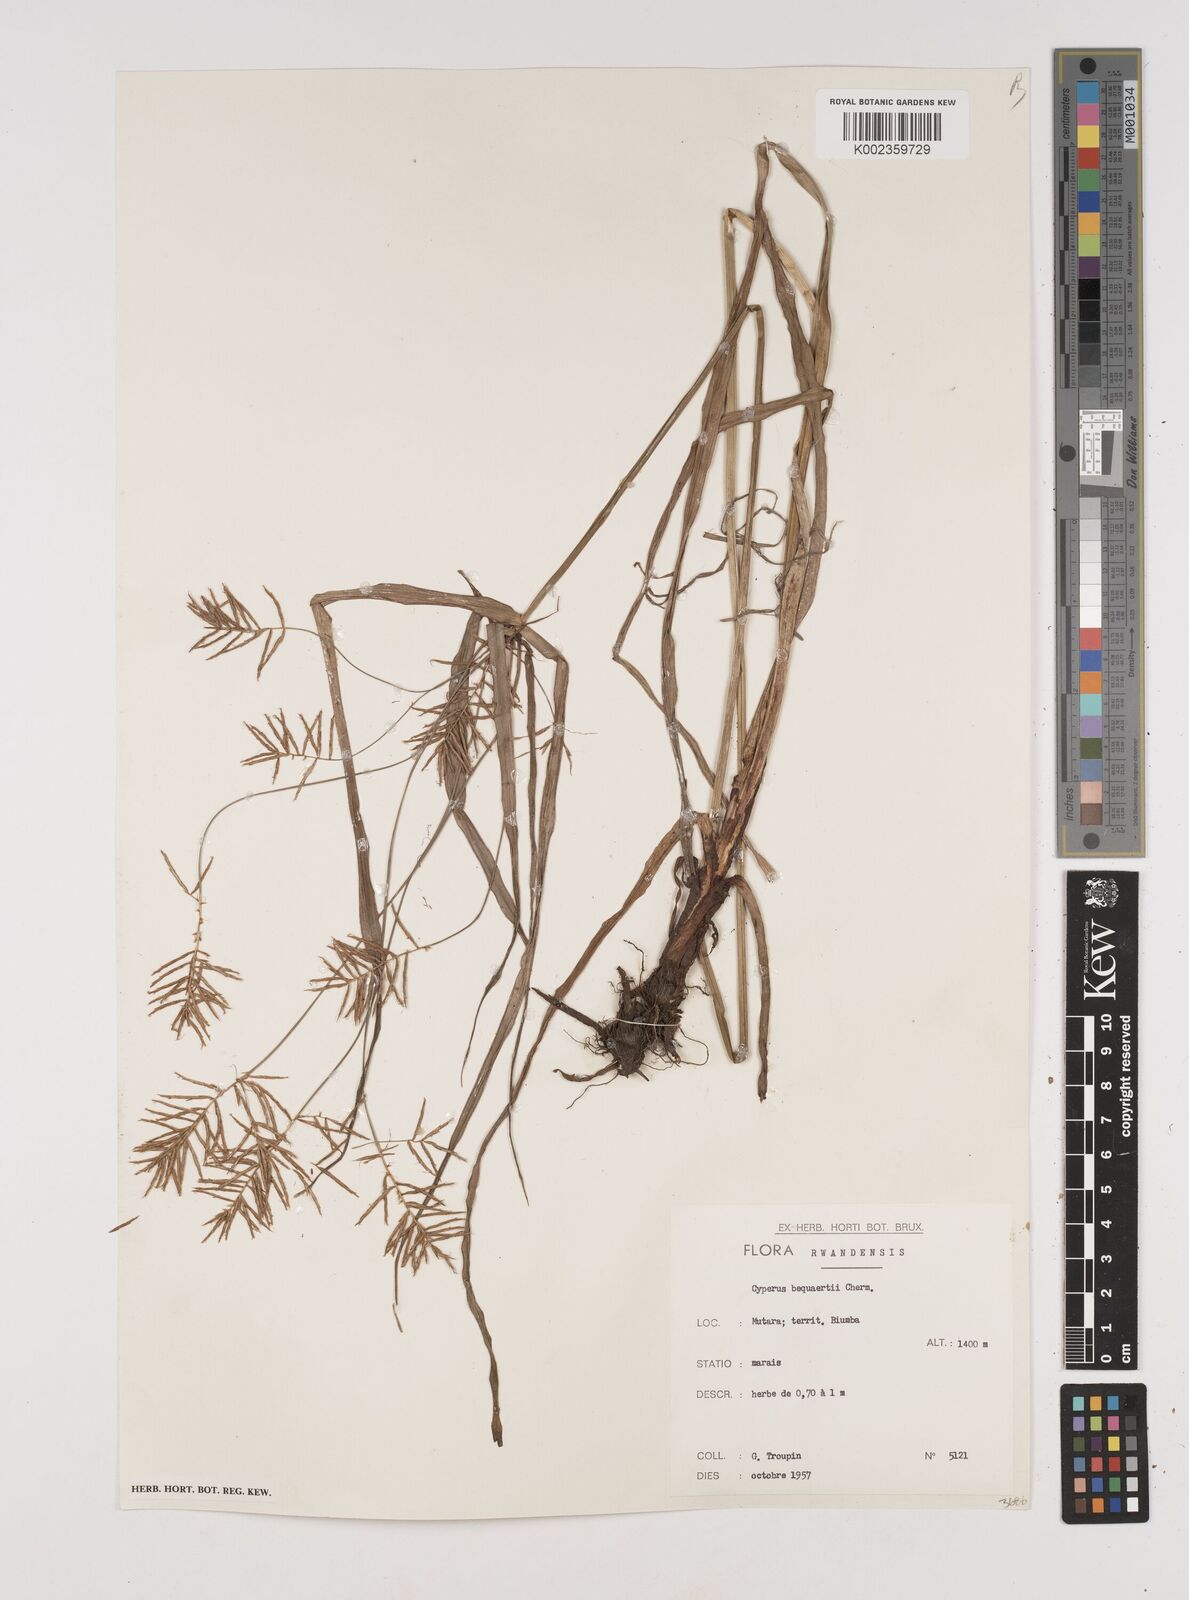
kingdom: Plantae
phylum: Tracheophyta
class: Liliopsida
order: Poales
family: Cyperaceae
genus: Cyperus
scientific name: Cyperus ferrugineoviridis
